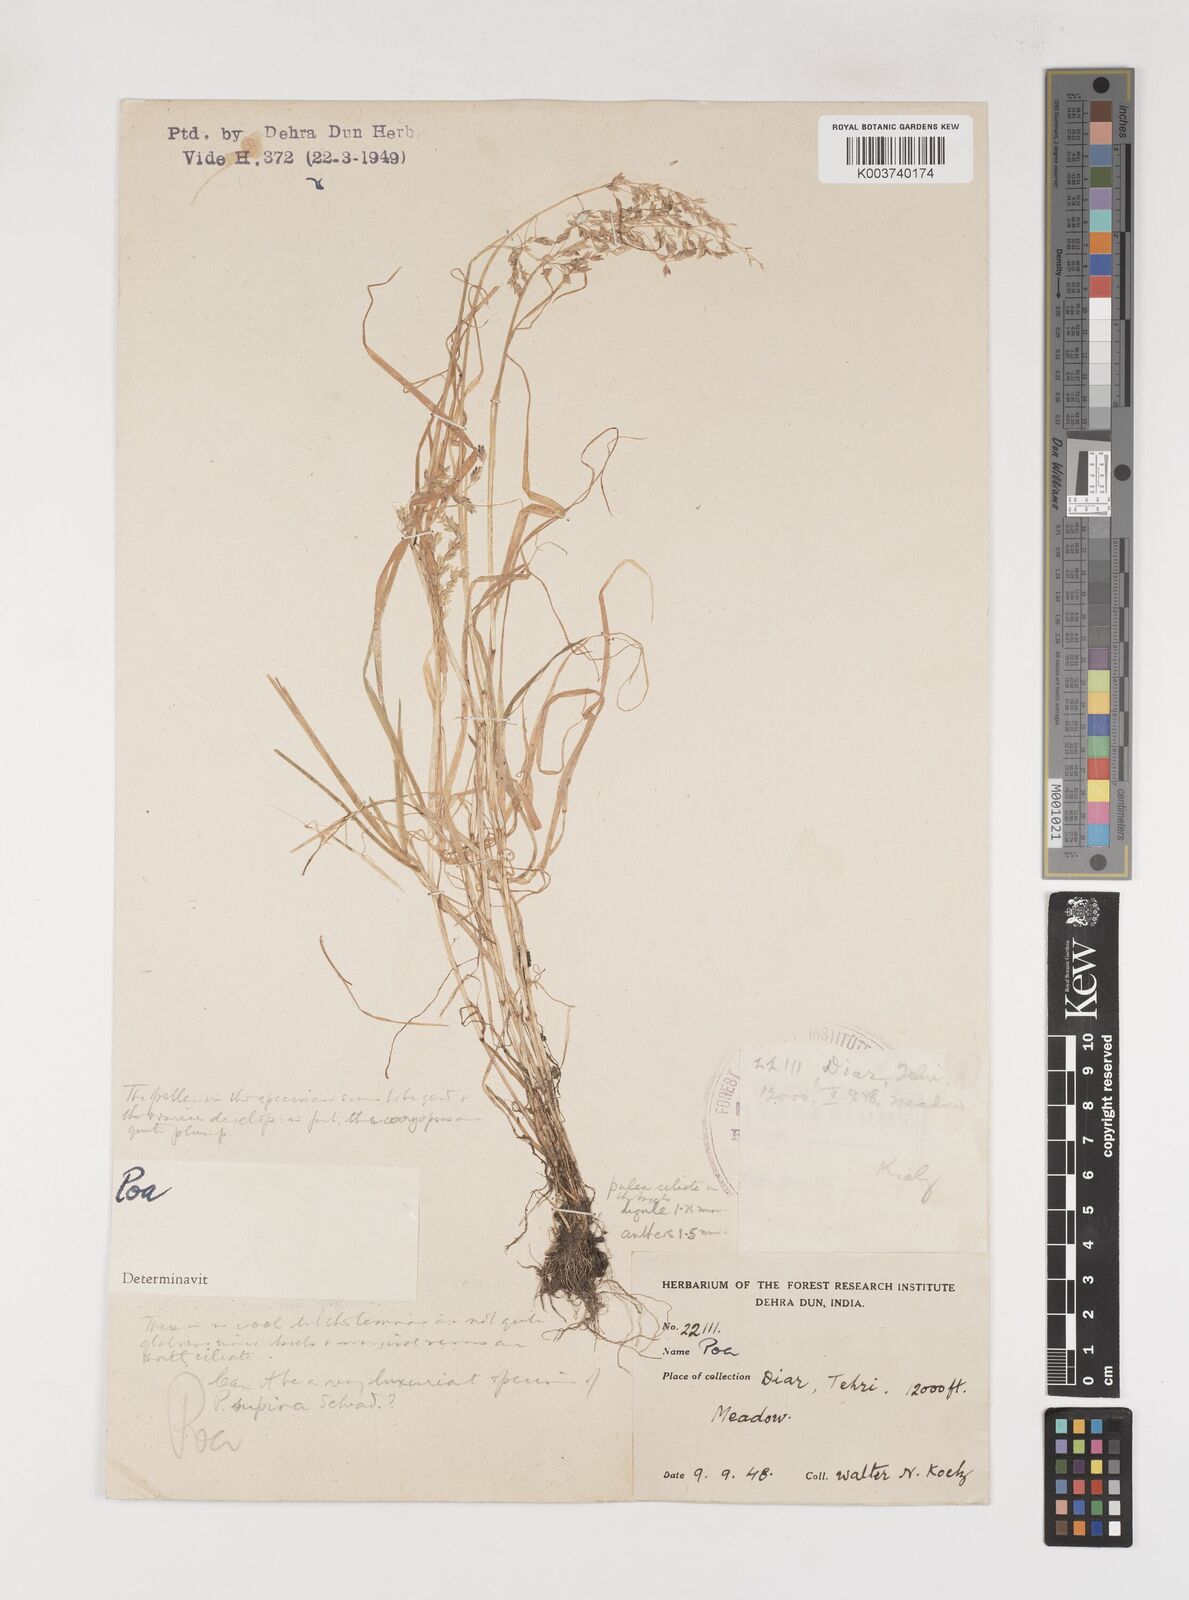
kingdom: Plantae
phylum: Tracheophyta
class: Liliopsida
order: Poales
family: Poaceae
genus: Poa
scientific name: Poa supina
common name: Supina bluegrass
